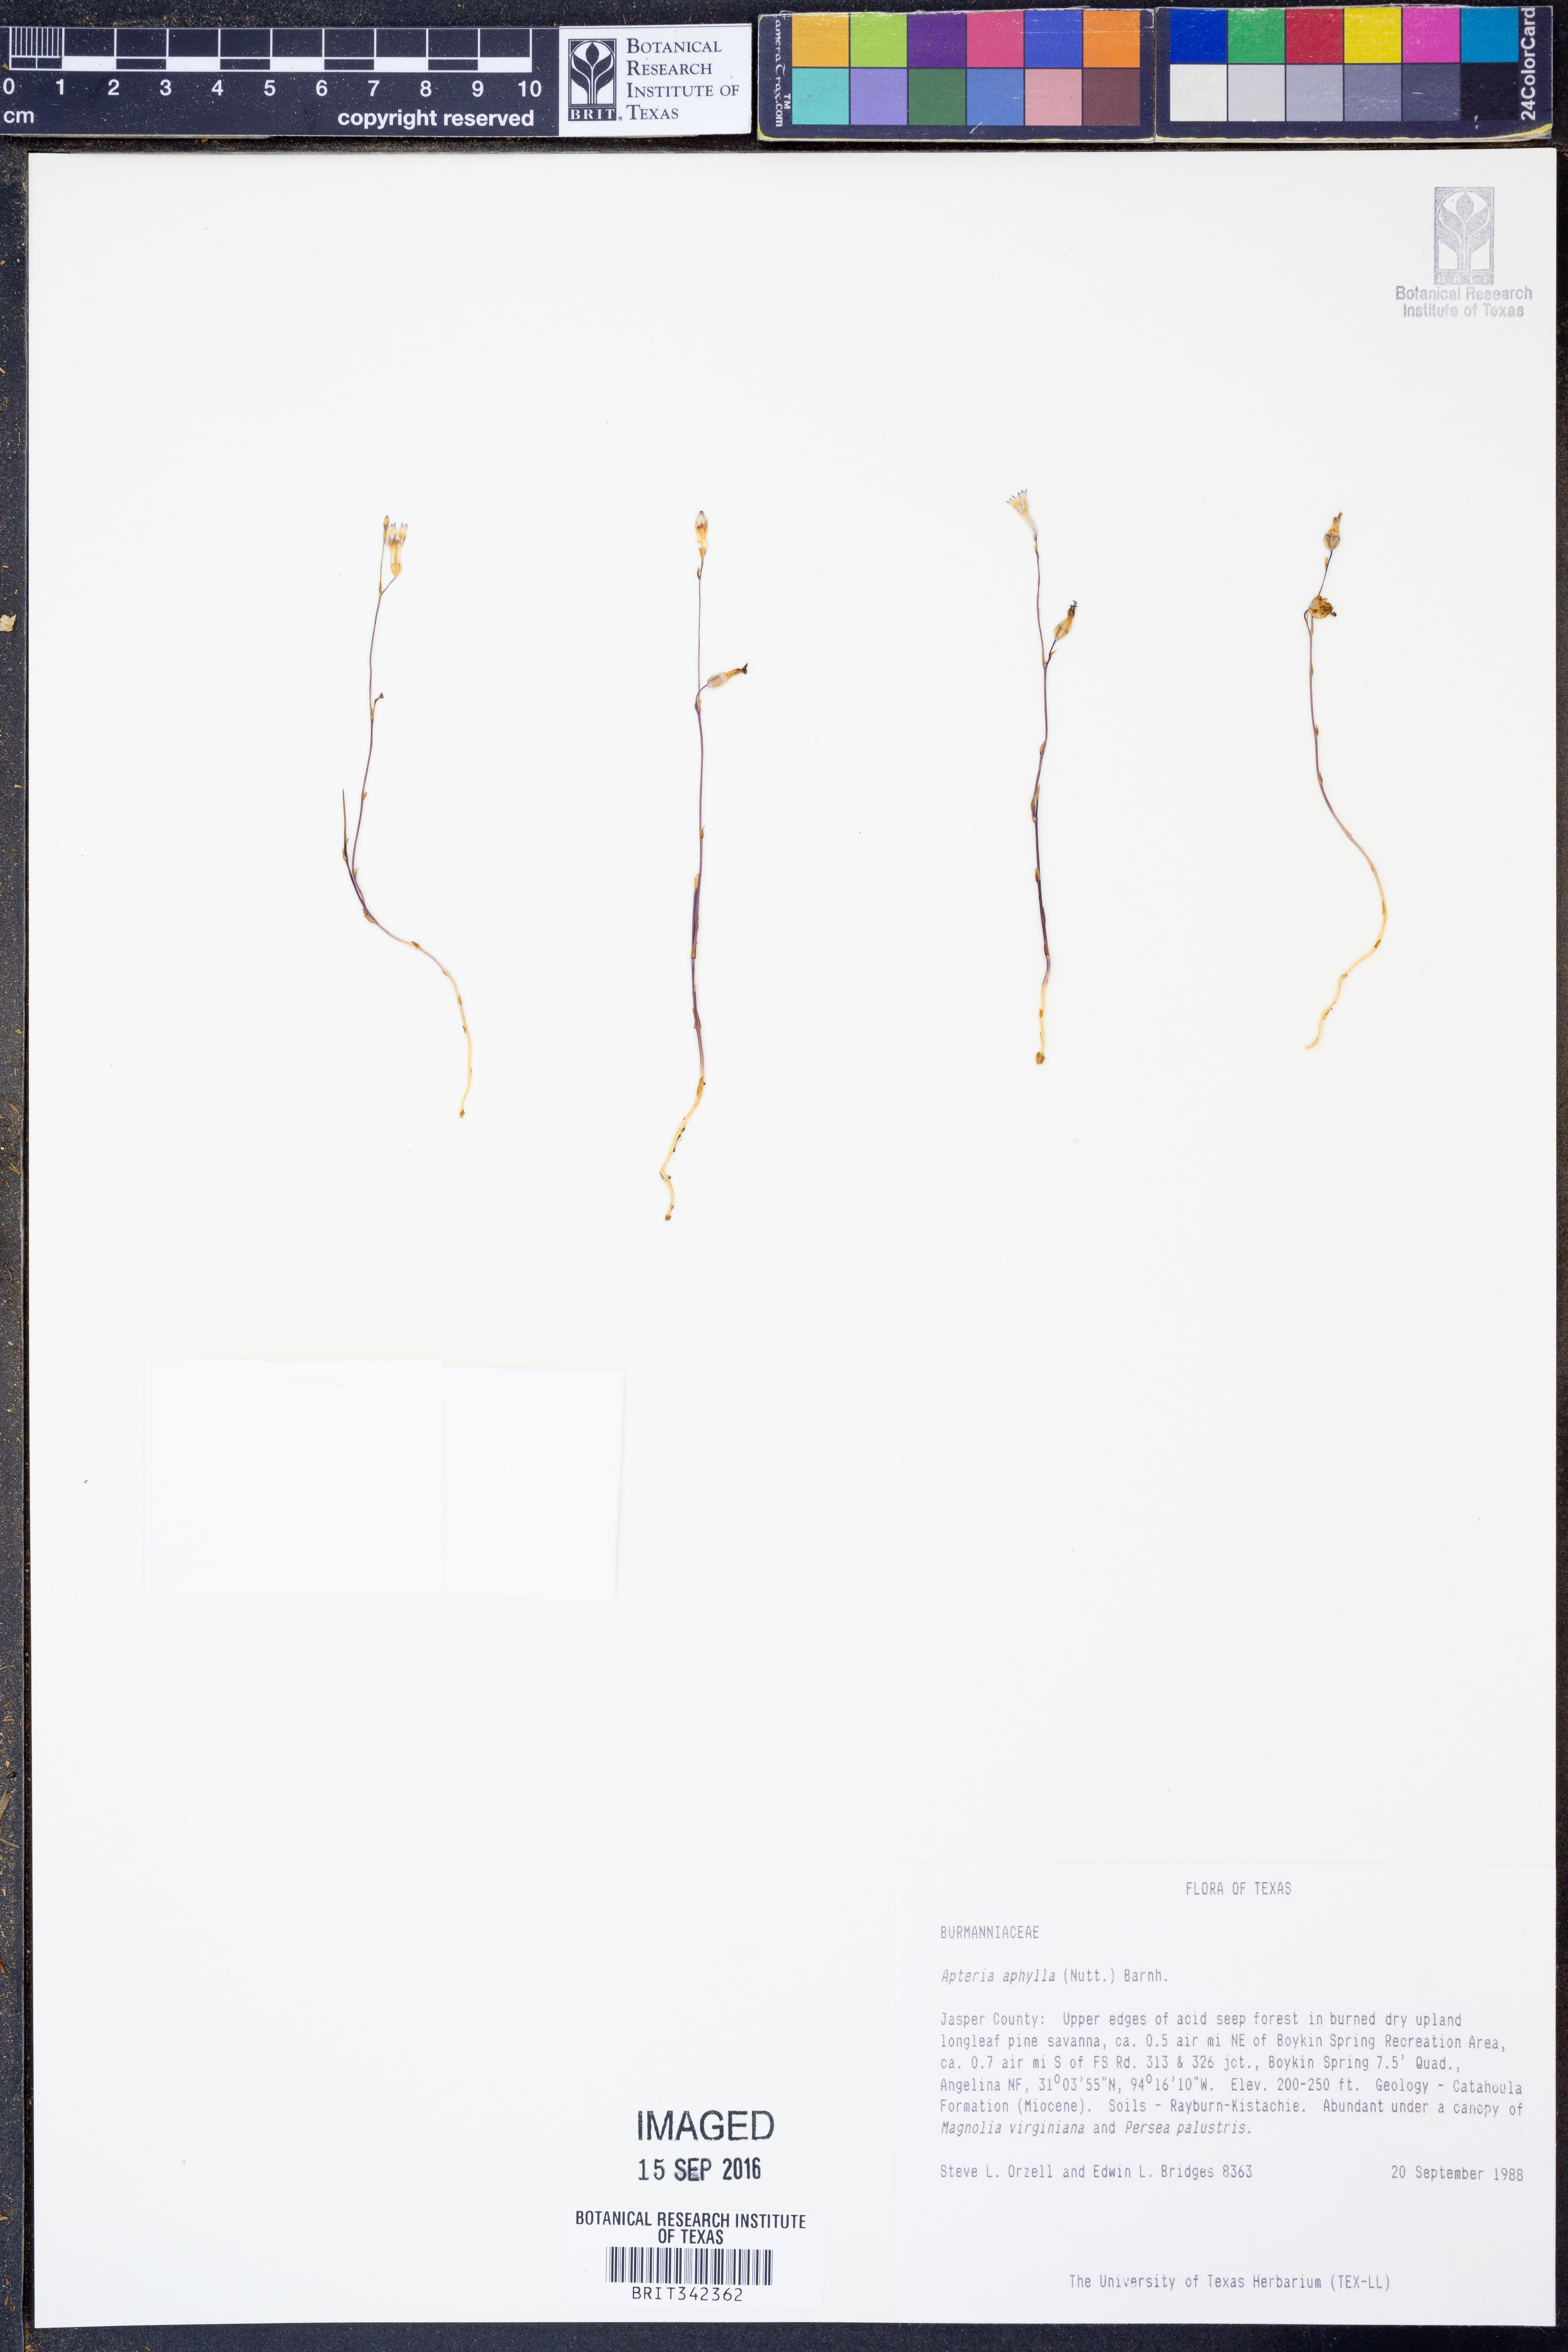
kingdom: Plantae
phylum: Tracheophyta
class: Liliopsida
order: Dioscoreales
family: Burmanniaceae
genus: Apteria
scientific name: Apteria aphylla
